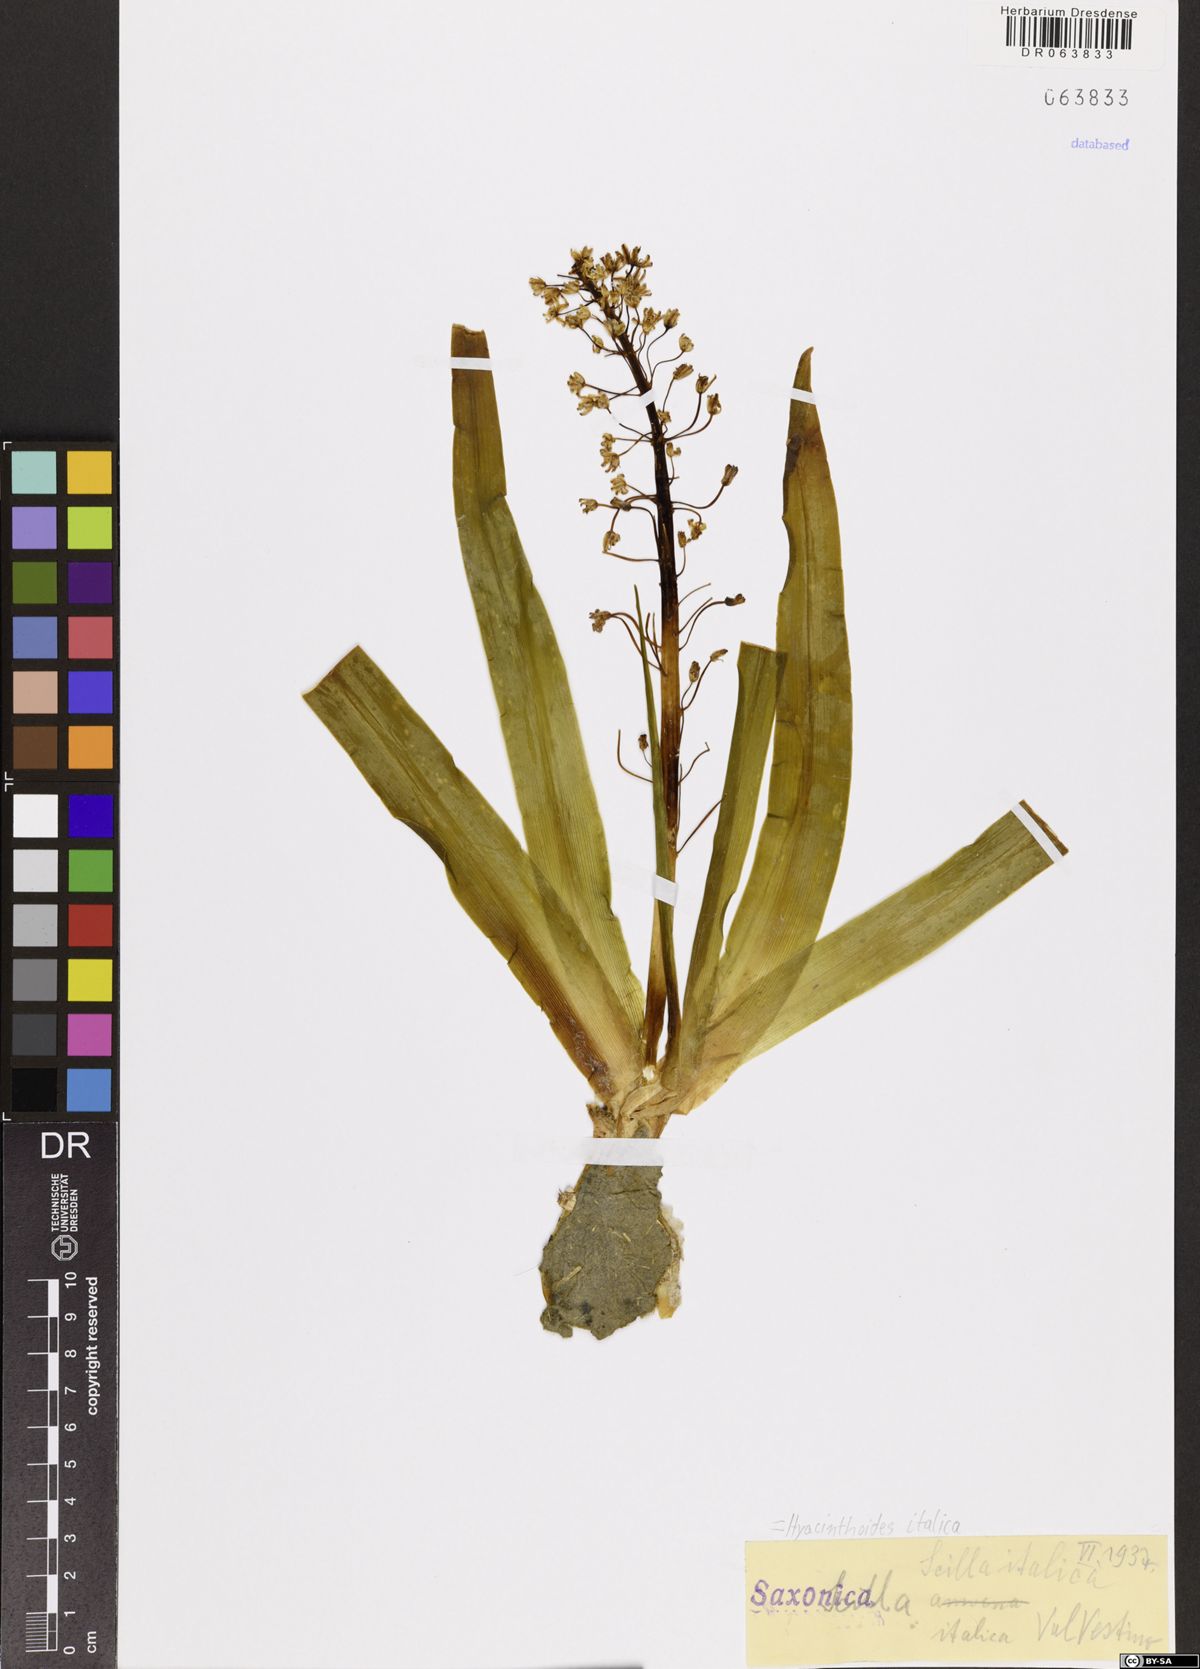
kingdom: Plantae
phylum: Tracheophyta
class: Liliopsida
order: Asparagales
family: Asparagaceae
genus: Hyacinthoides
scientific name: Hyacinthoides italica
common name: Italian bluebell
